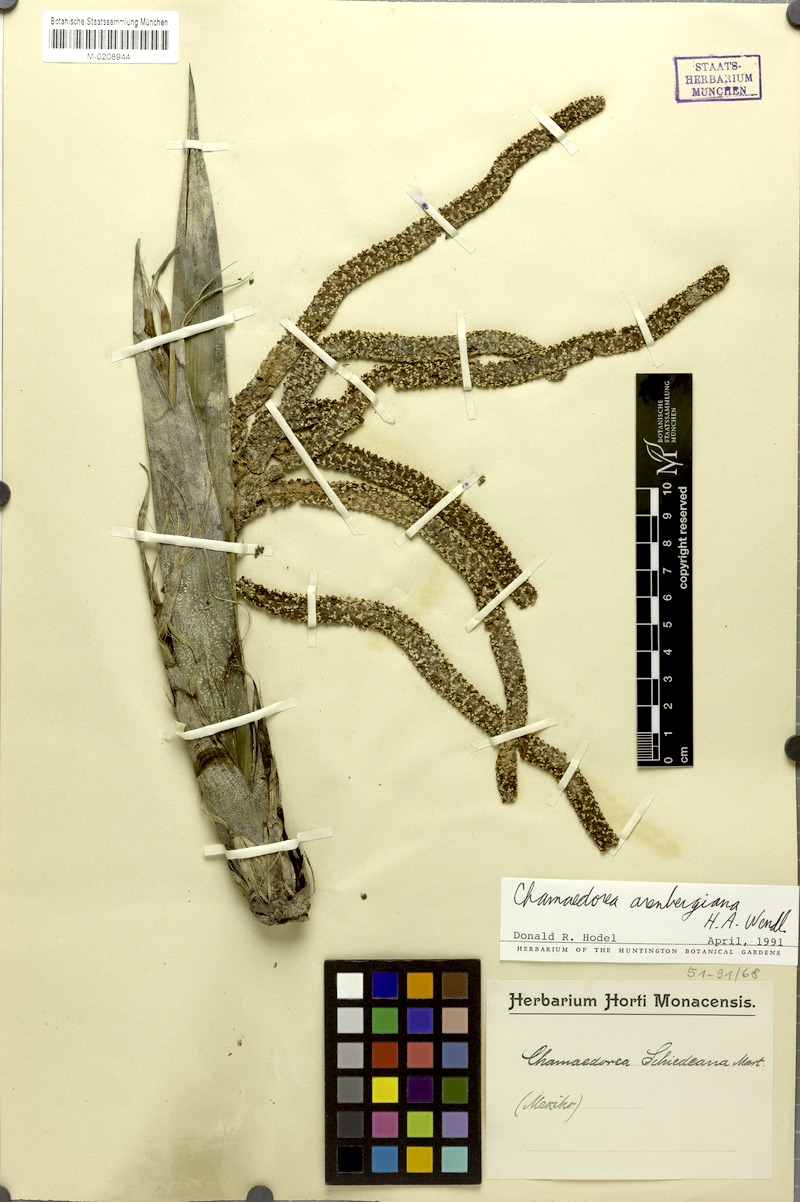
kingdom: Plantae
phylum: Tracheophyta
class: Liliopsida
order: Arecales
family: Arecaceae
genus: Chamaedorea
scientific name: Chamaedorea arenbergiana
